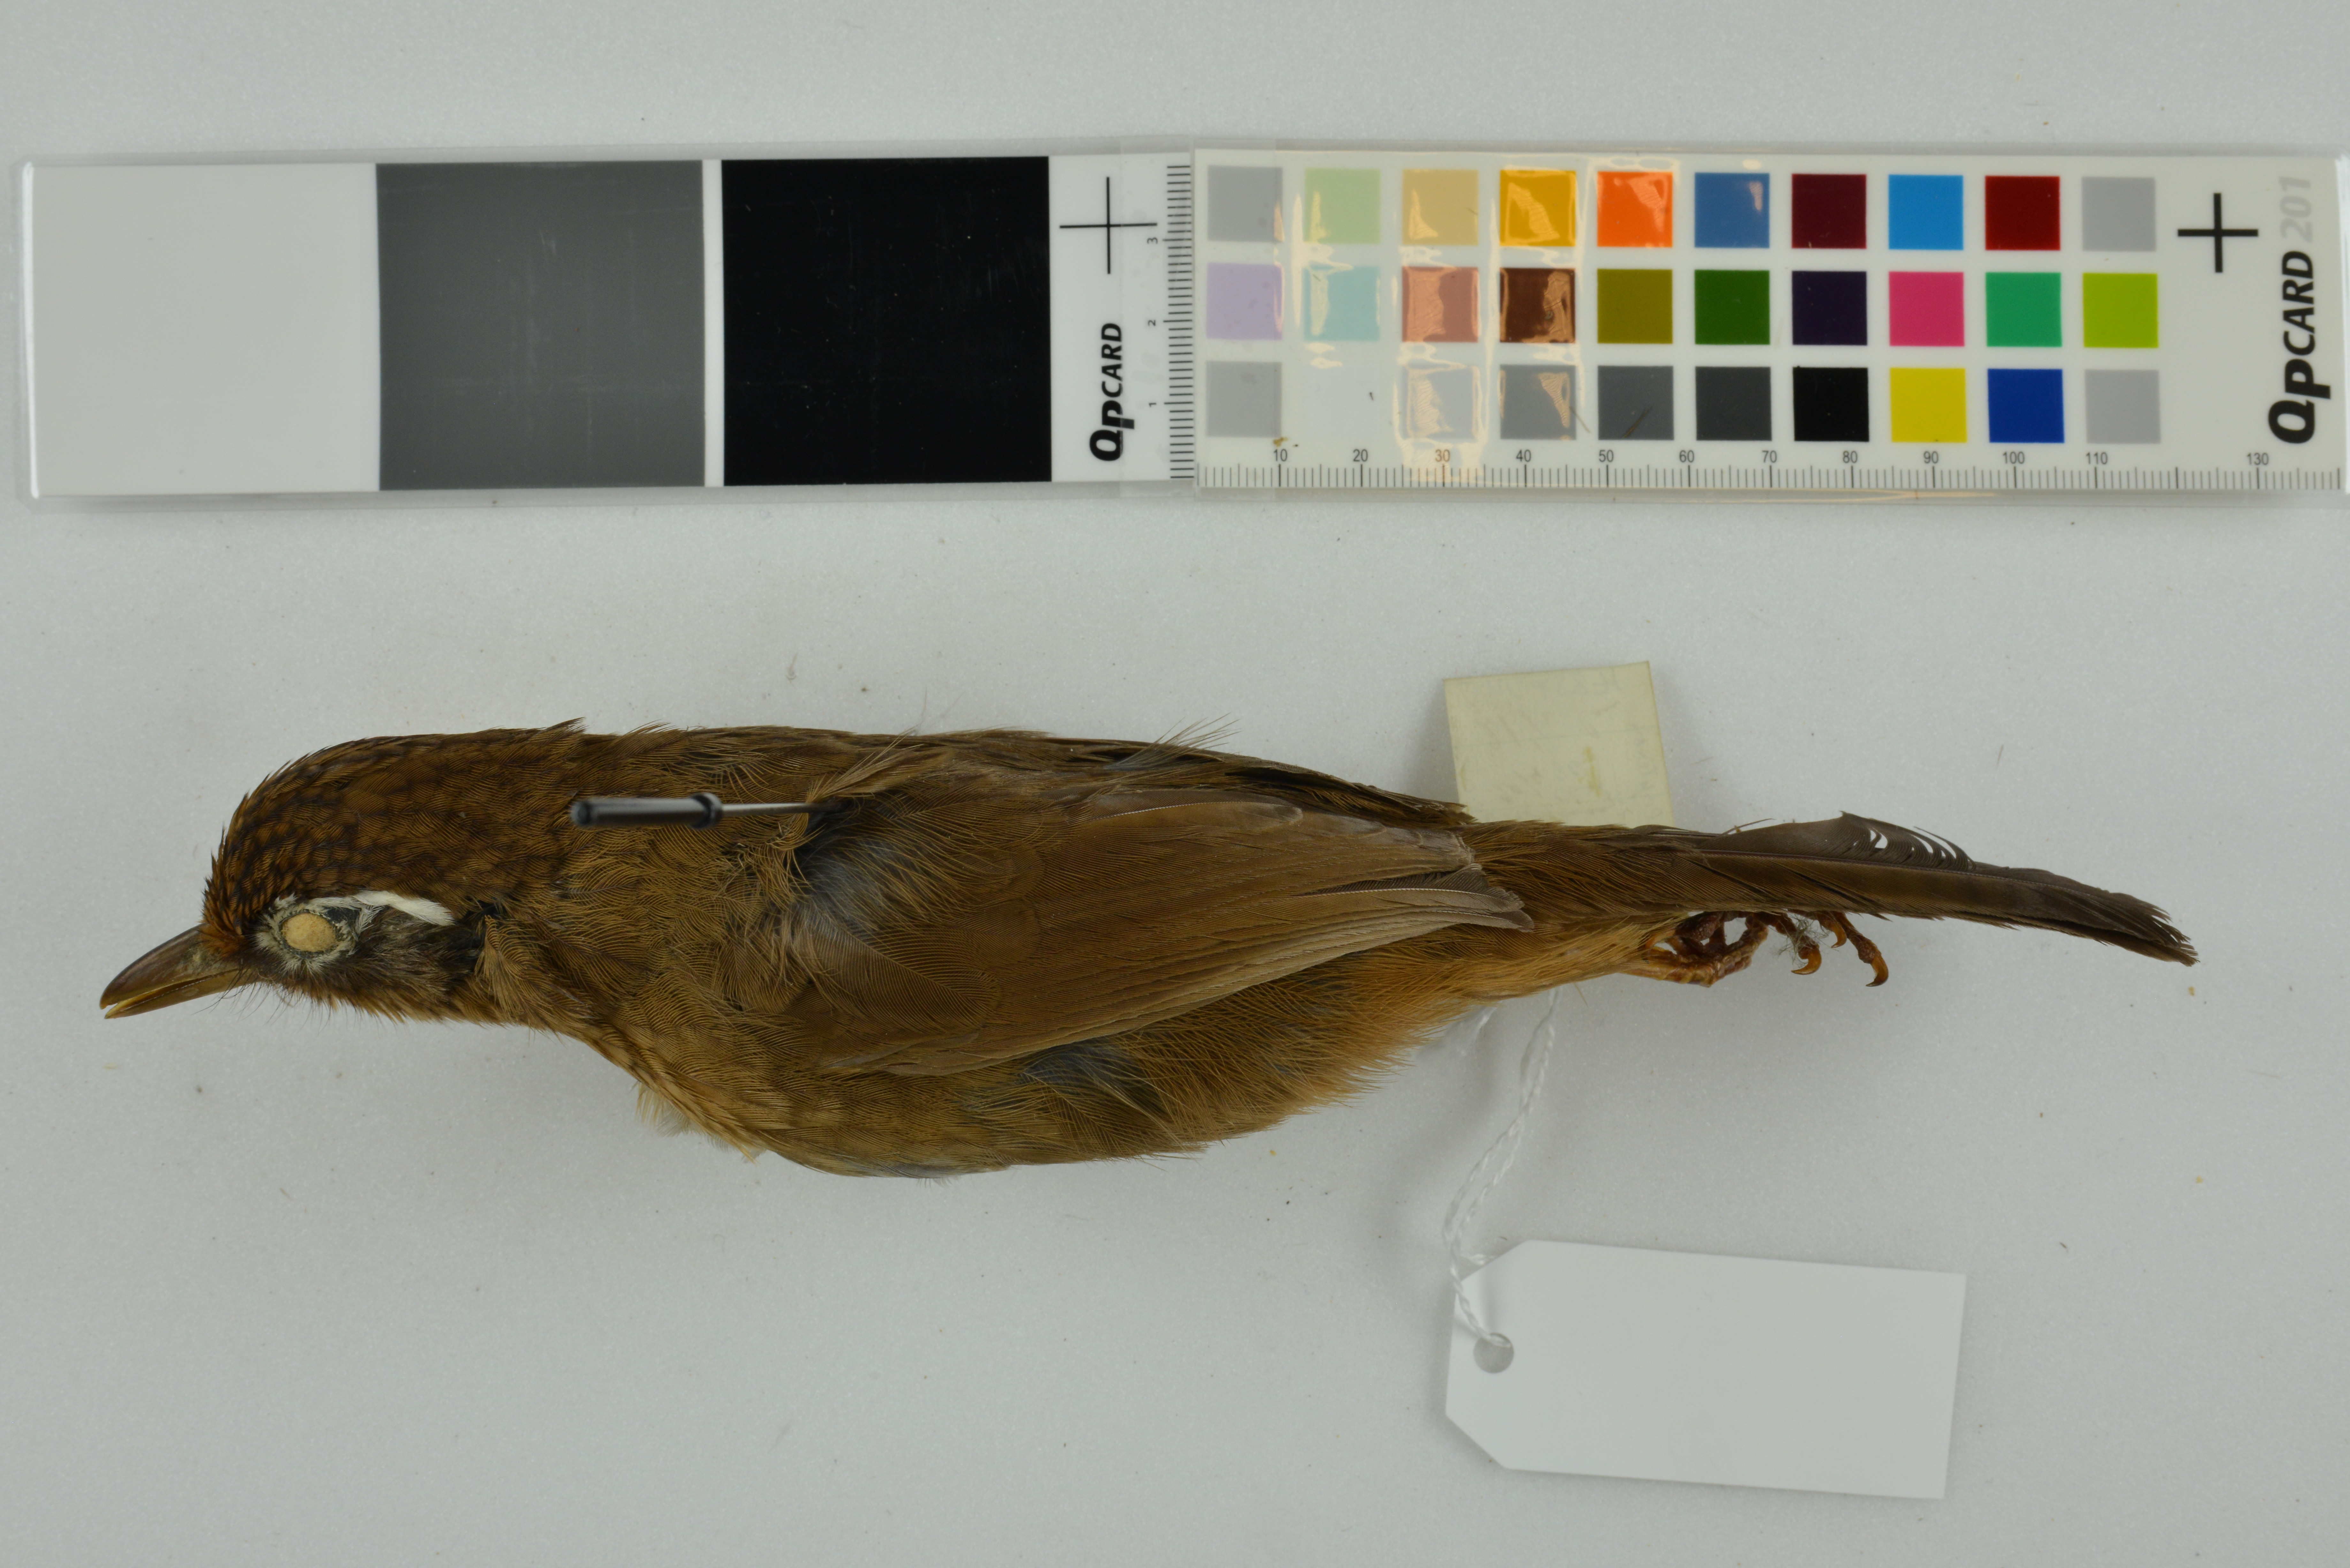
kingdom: Animalia
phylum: Chordata
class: Aves
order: Passeriformes
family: Leiothrichidae
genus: Garrulax
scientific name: Garrulax canorus
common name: Chinese hwamei
